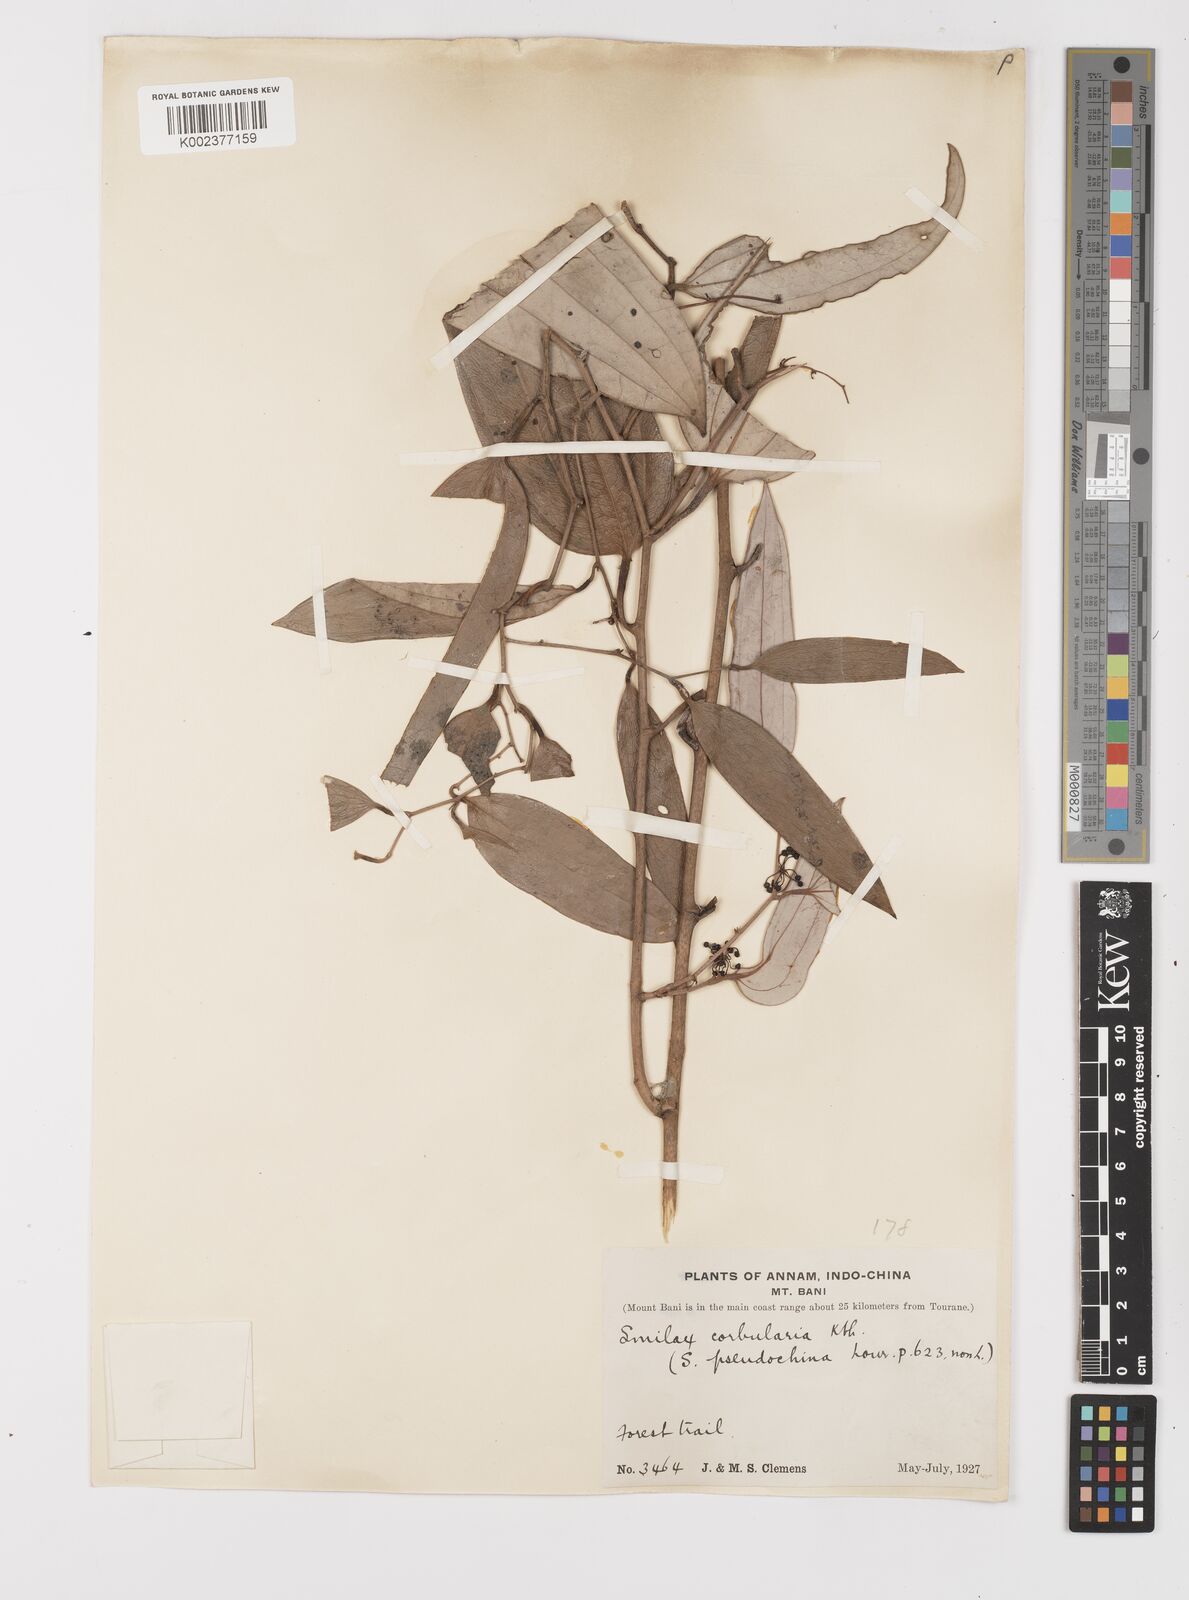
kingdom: Plantae
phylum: Tracheophyta
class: Liliopsida
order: Liliales
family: Smilacaceae
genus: Smilax
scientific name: Smilax corbularia
